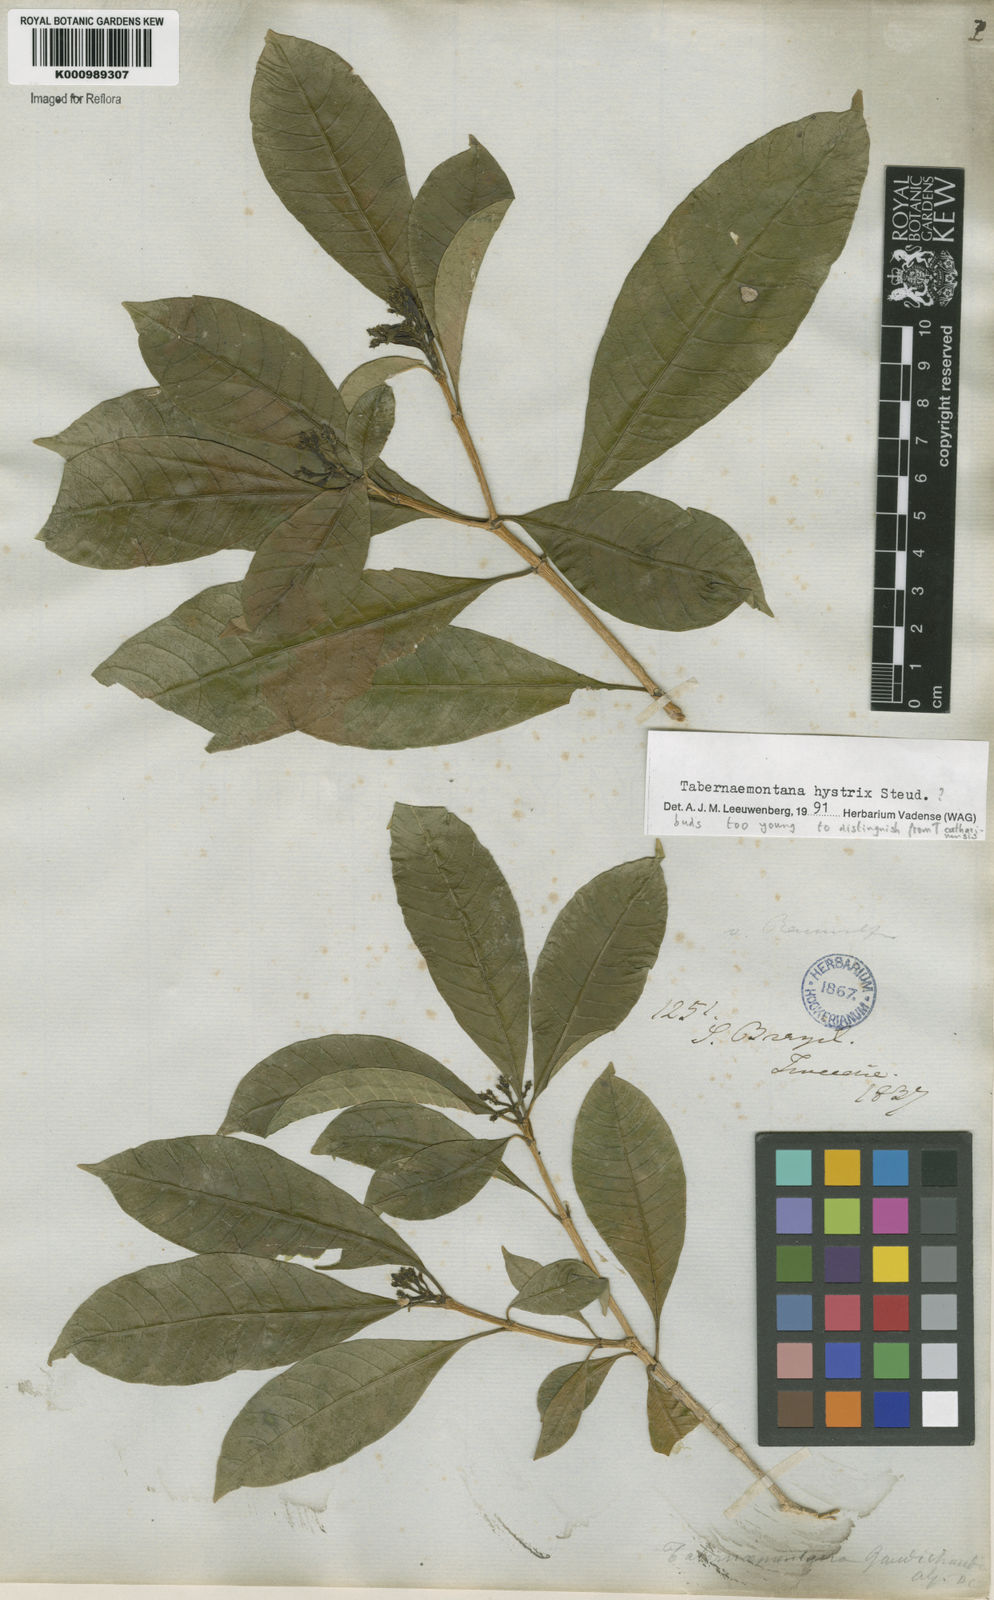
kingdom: Plantae
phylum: Tracheophyta
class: Magnoliopsida
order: Gentianales
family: Apocynaceae
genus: Tabernaemontana
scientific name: Tabernaemontana hystrix
